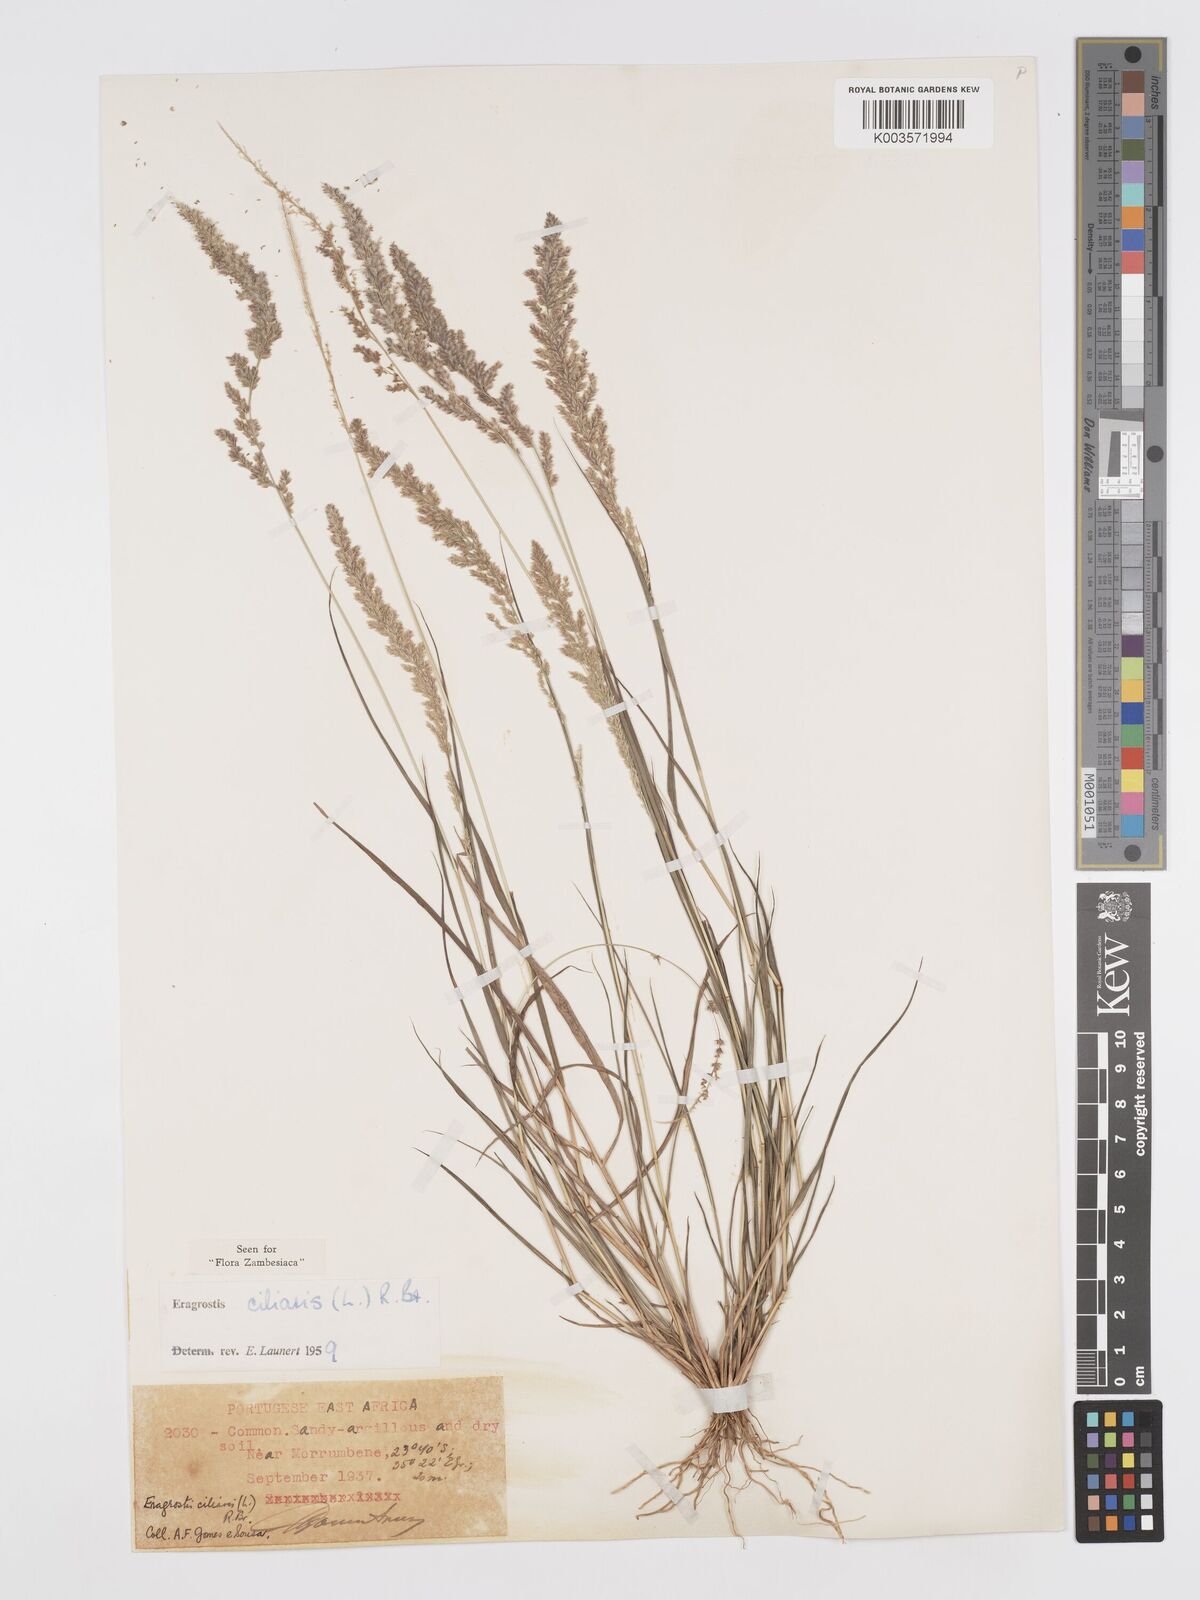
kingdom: Plantae
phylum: Tracheophyta
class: Liliopsida
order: Poales
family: Poaceae
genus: Eragrostis
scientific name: Eragrostis ciliaris
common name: Gophertail lovegrass
